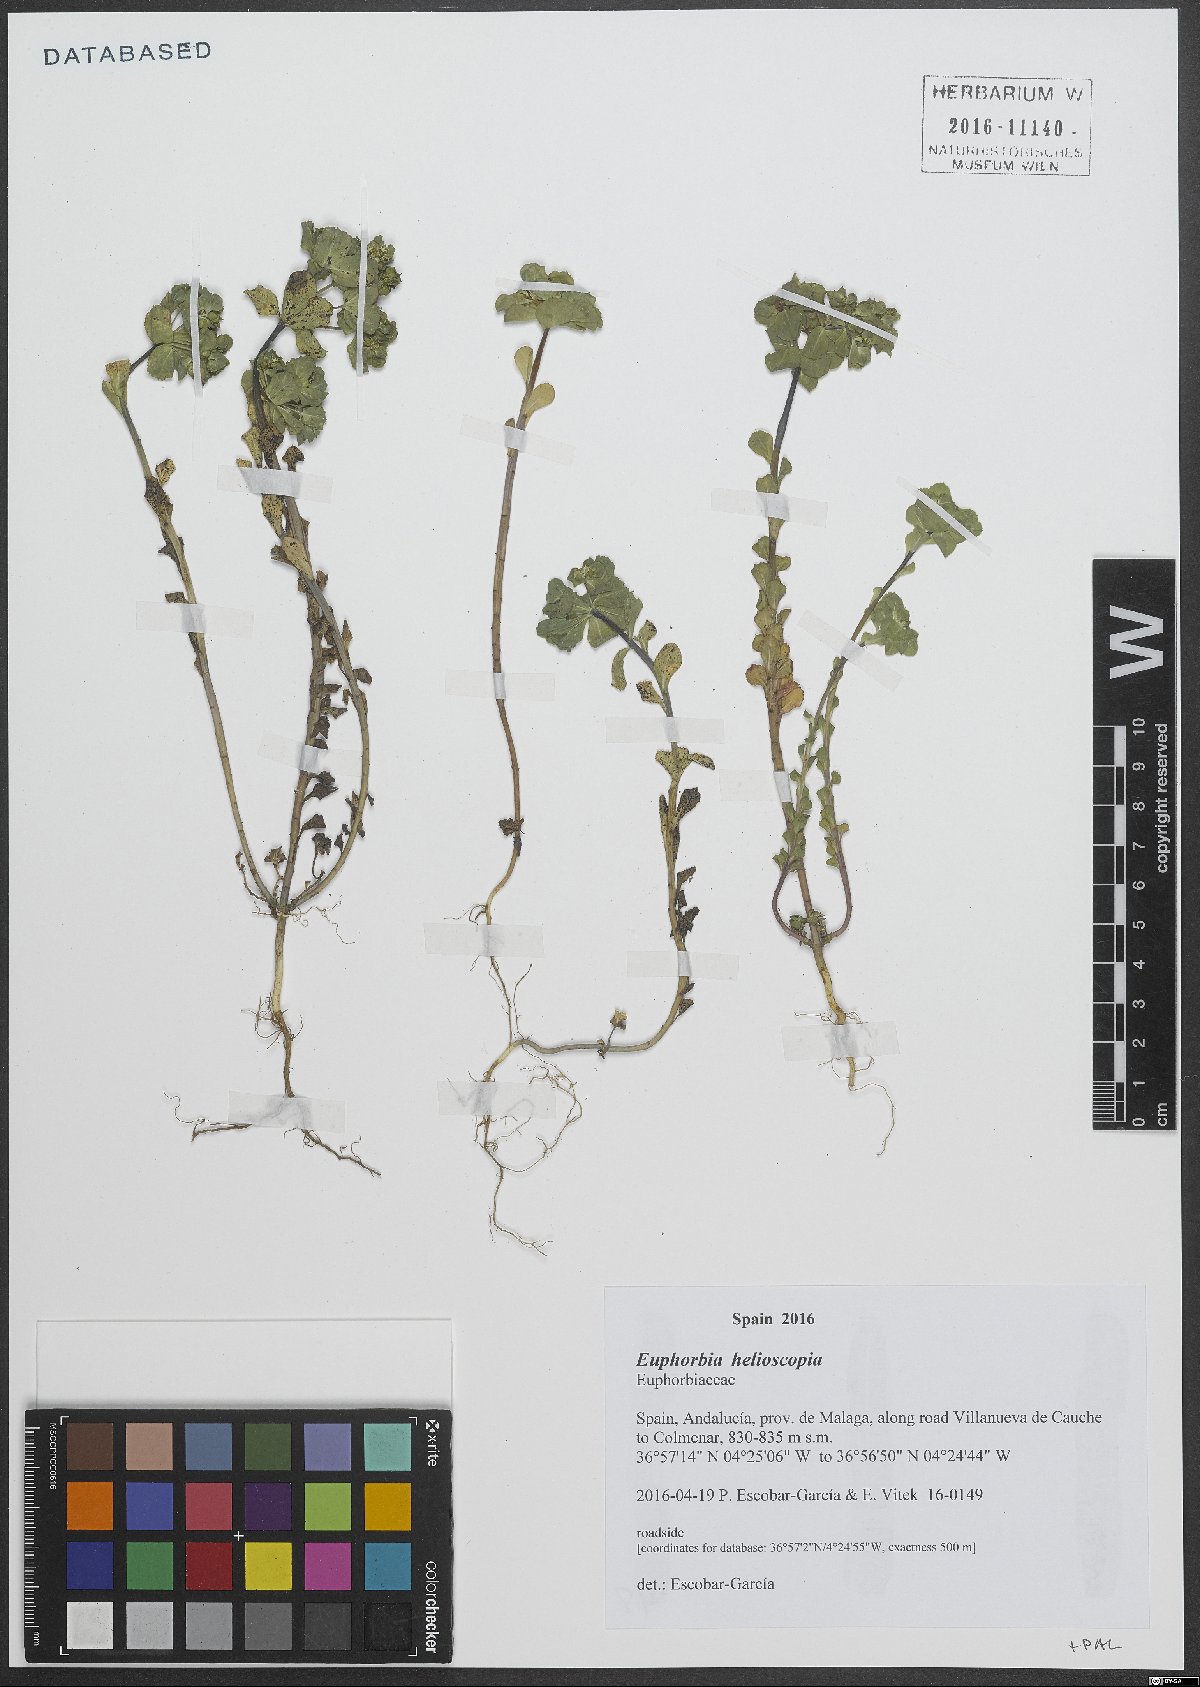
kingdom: Plantae
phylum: Tracheophyta
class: Magnoliopsida
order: Malpighiales
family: Euphorbiaceae
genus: Euphorbia
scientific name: Euphorbia helioscopia
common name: Sun spurge
